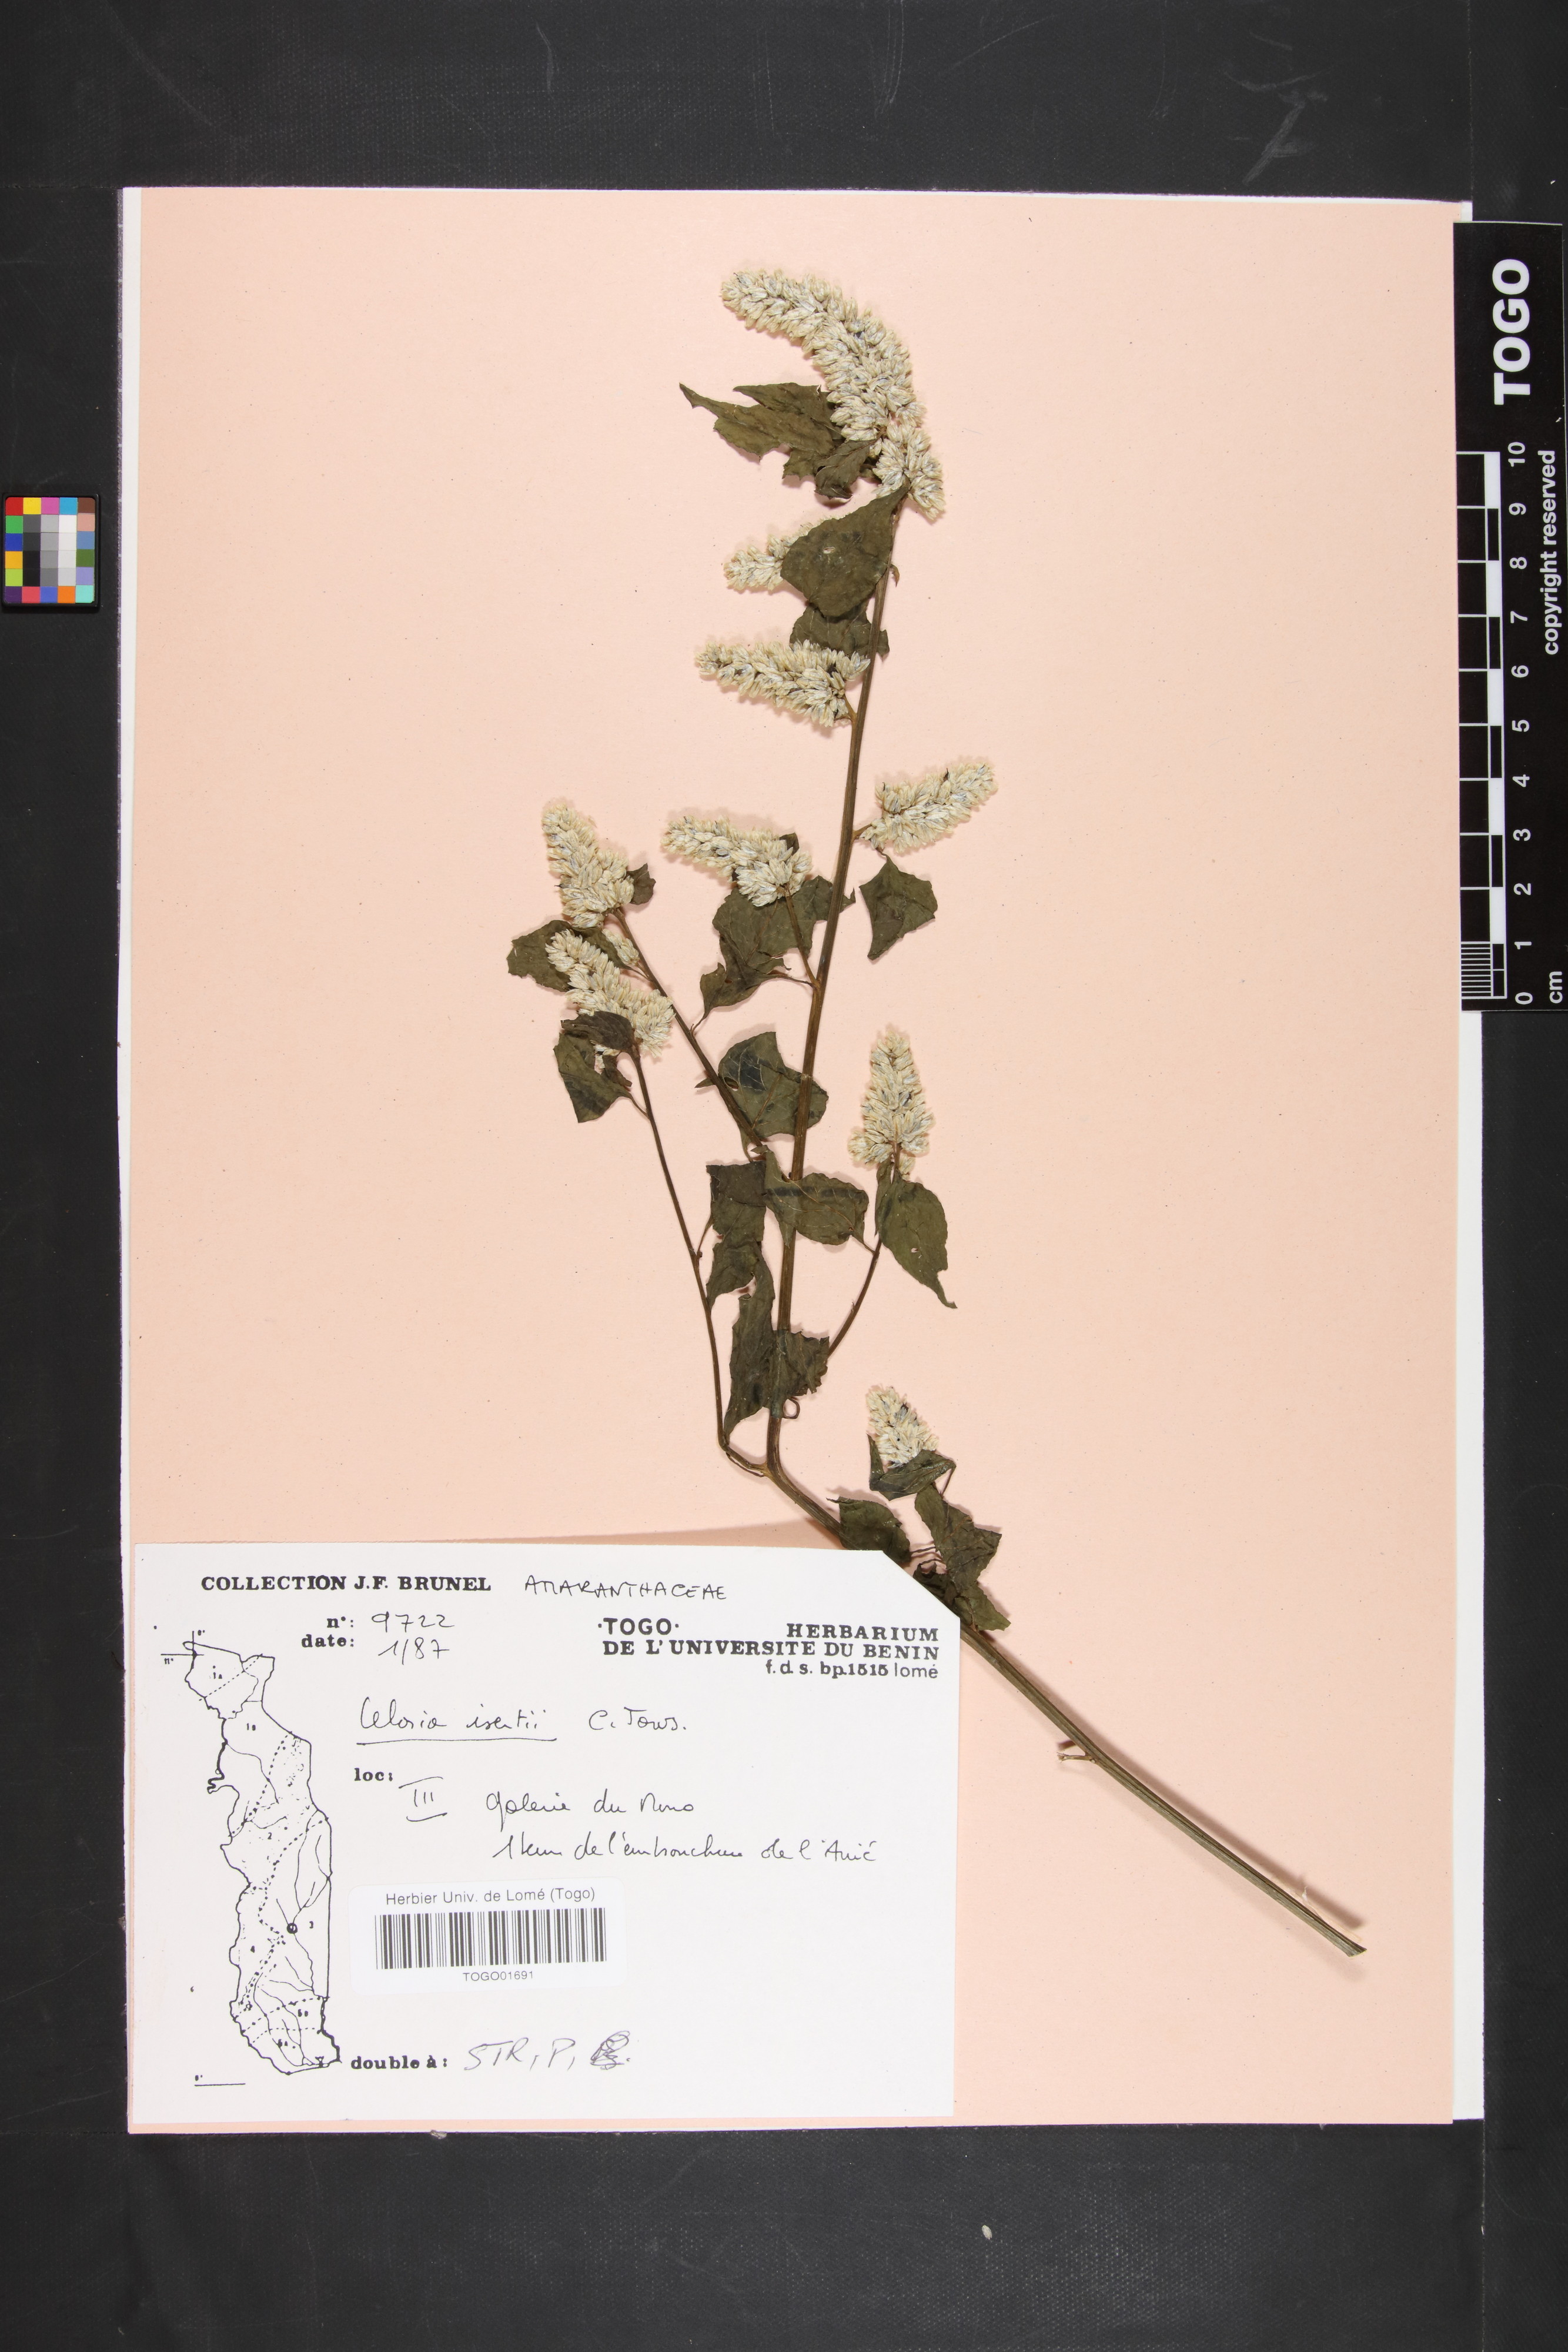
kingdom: Plantae
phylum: Tracheophyta
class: Magnoliopsida
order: Caryophyllales
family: Amaranthaceae
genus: Celosia
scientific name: Celosia isertii
